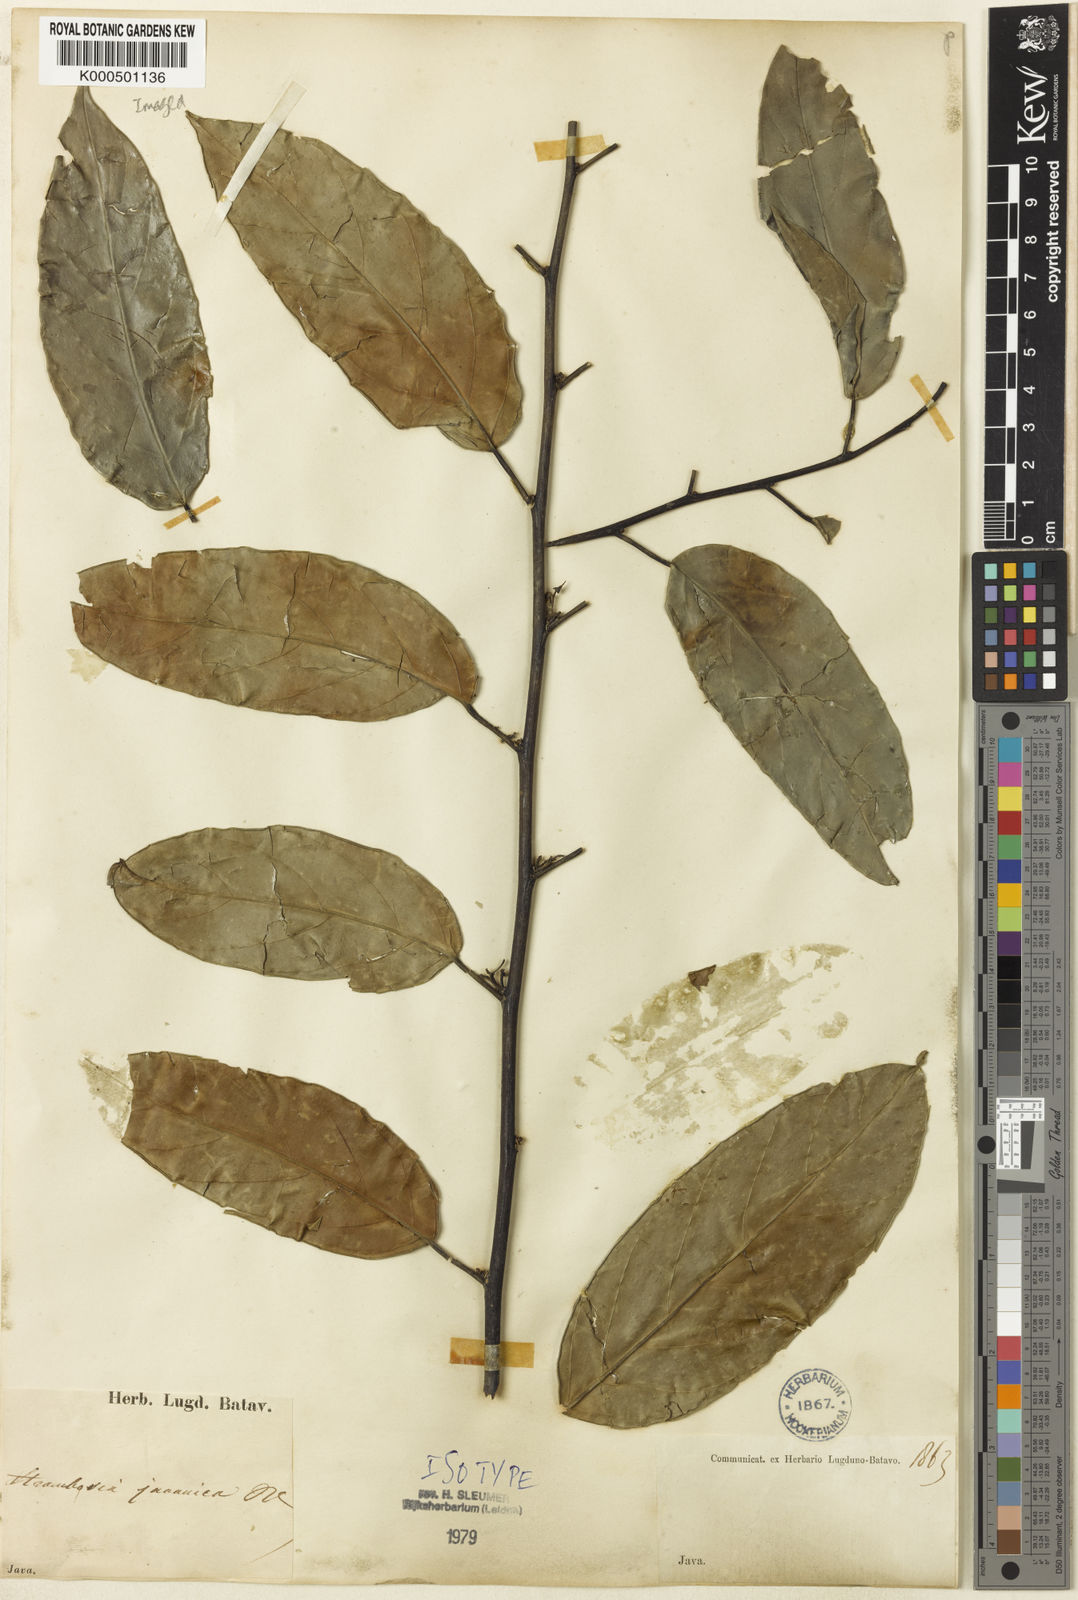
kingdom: Plantae
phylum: Tracheophyta
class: Magnoliopsida
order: Santalales
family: Strombosiaceae
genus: Strombosia
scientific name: Strombosia javanica
